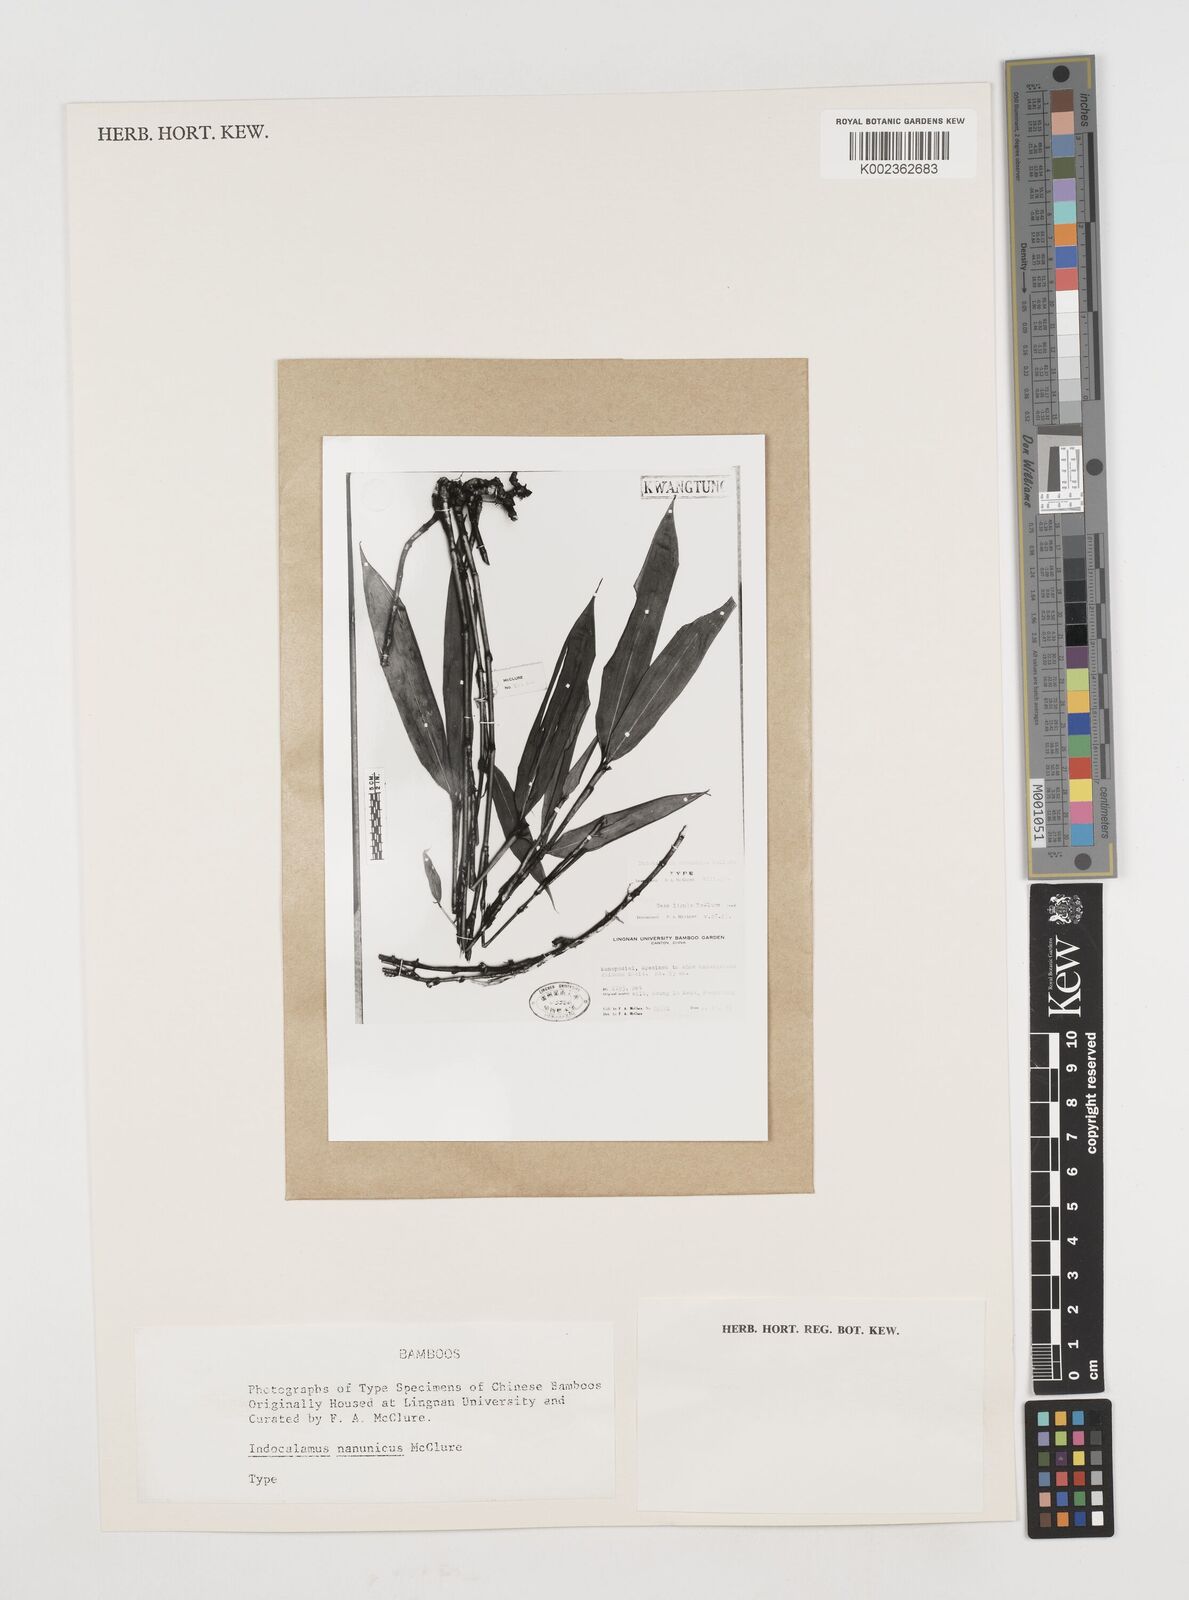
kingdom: Plantae
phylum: Tracheophyta
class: Liliopsida
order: Poales
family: Poaceae
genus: Acidosasa
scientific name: Acidosasa nanunica
